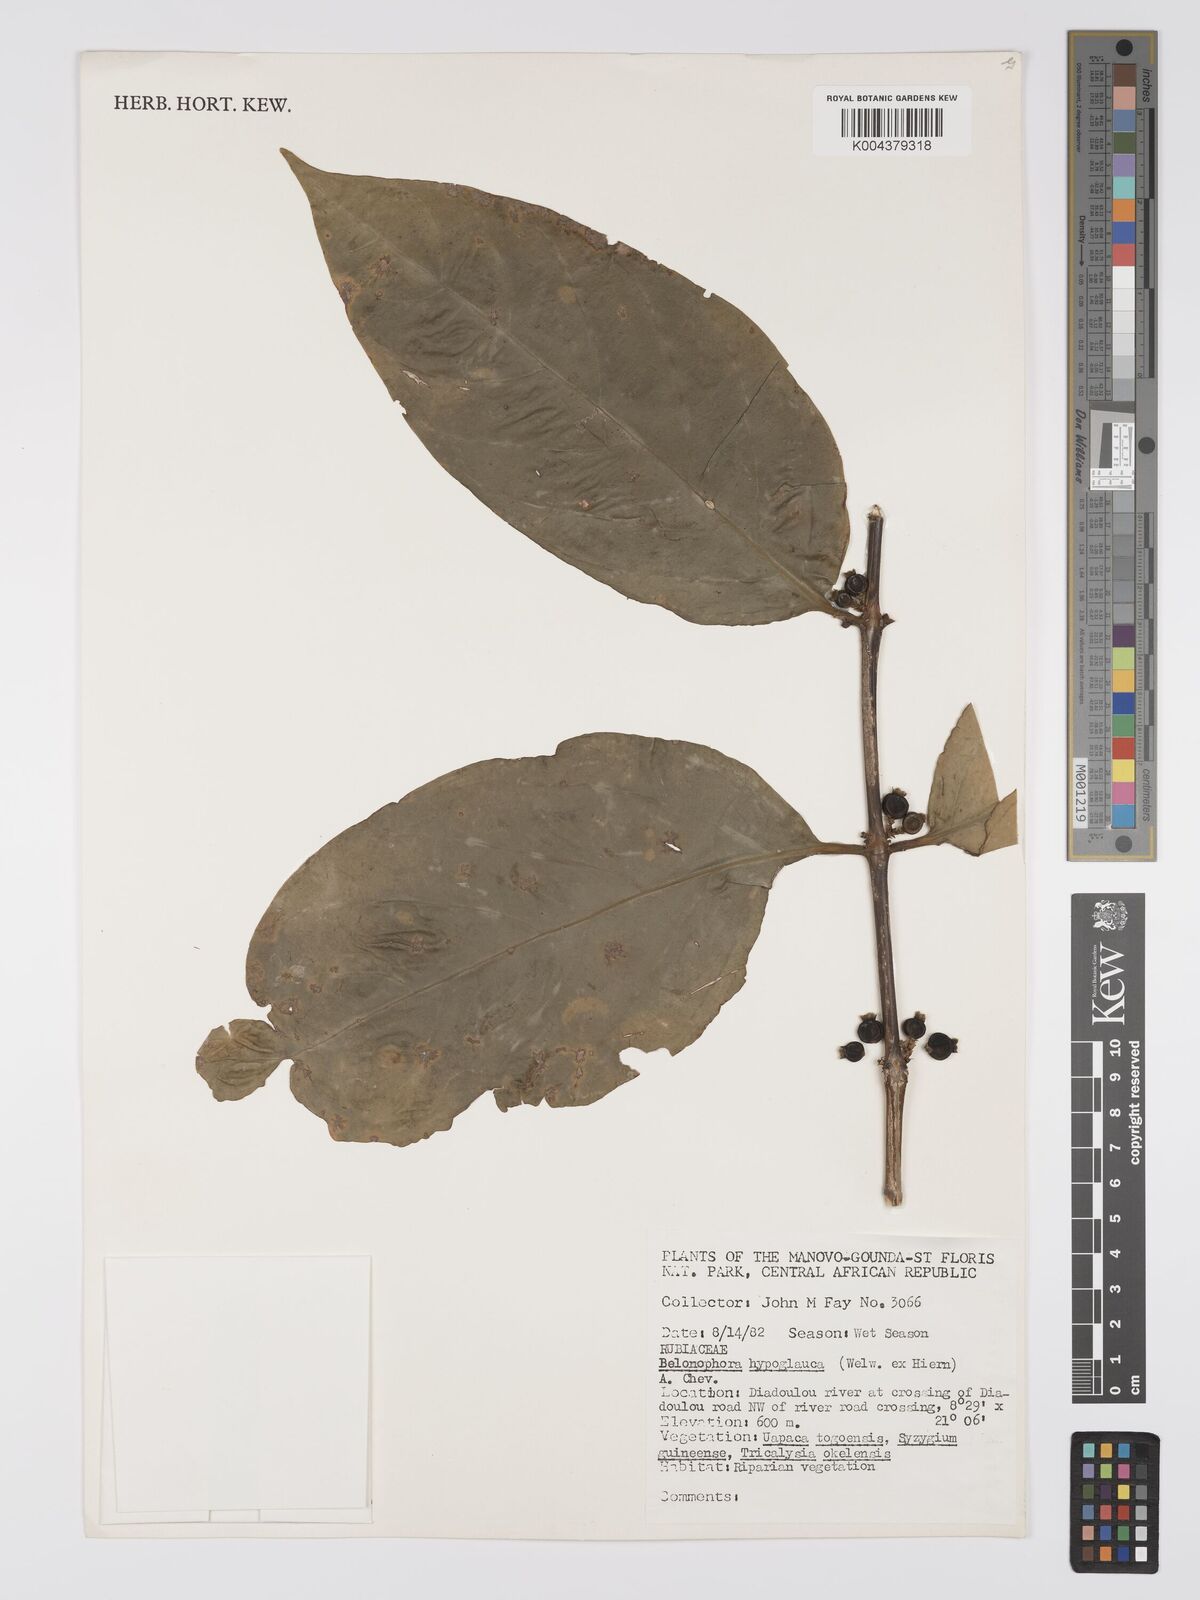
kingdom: Plantae
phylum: Tracheophyta
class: Magnoliopsida
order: Gentianales
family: Rubiaceae
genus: Belonophora
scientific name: Belonophora coffeoides
